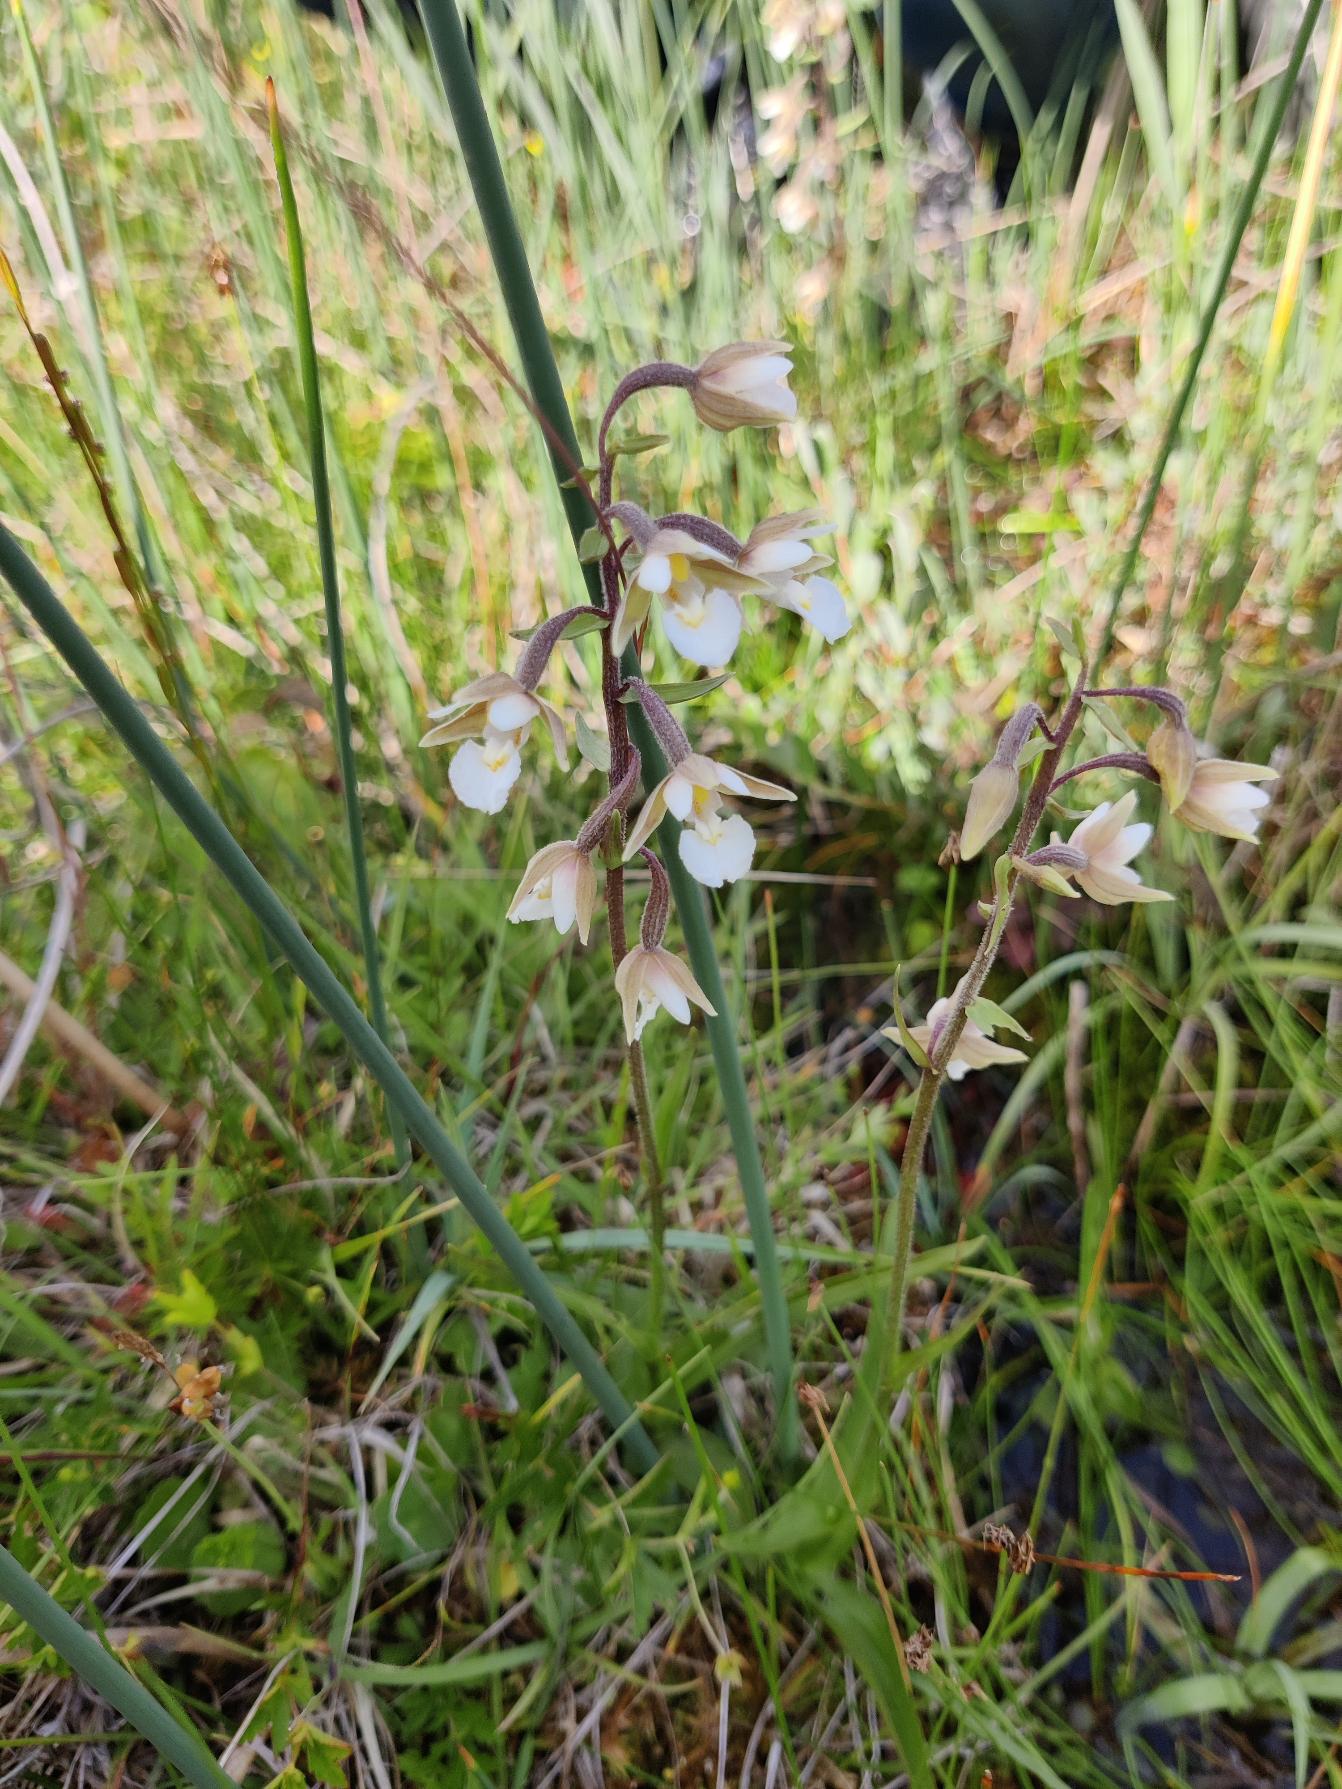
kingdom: Plantae
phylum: Tracheophyta
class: Liliopsida
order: Asparagales
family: Orchidaceae
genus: Epipactis
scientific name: Epipactis palustris
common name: Sump-hullæbe
